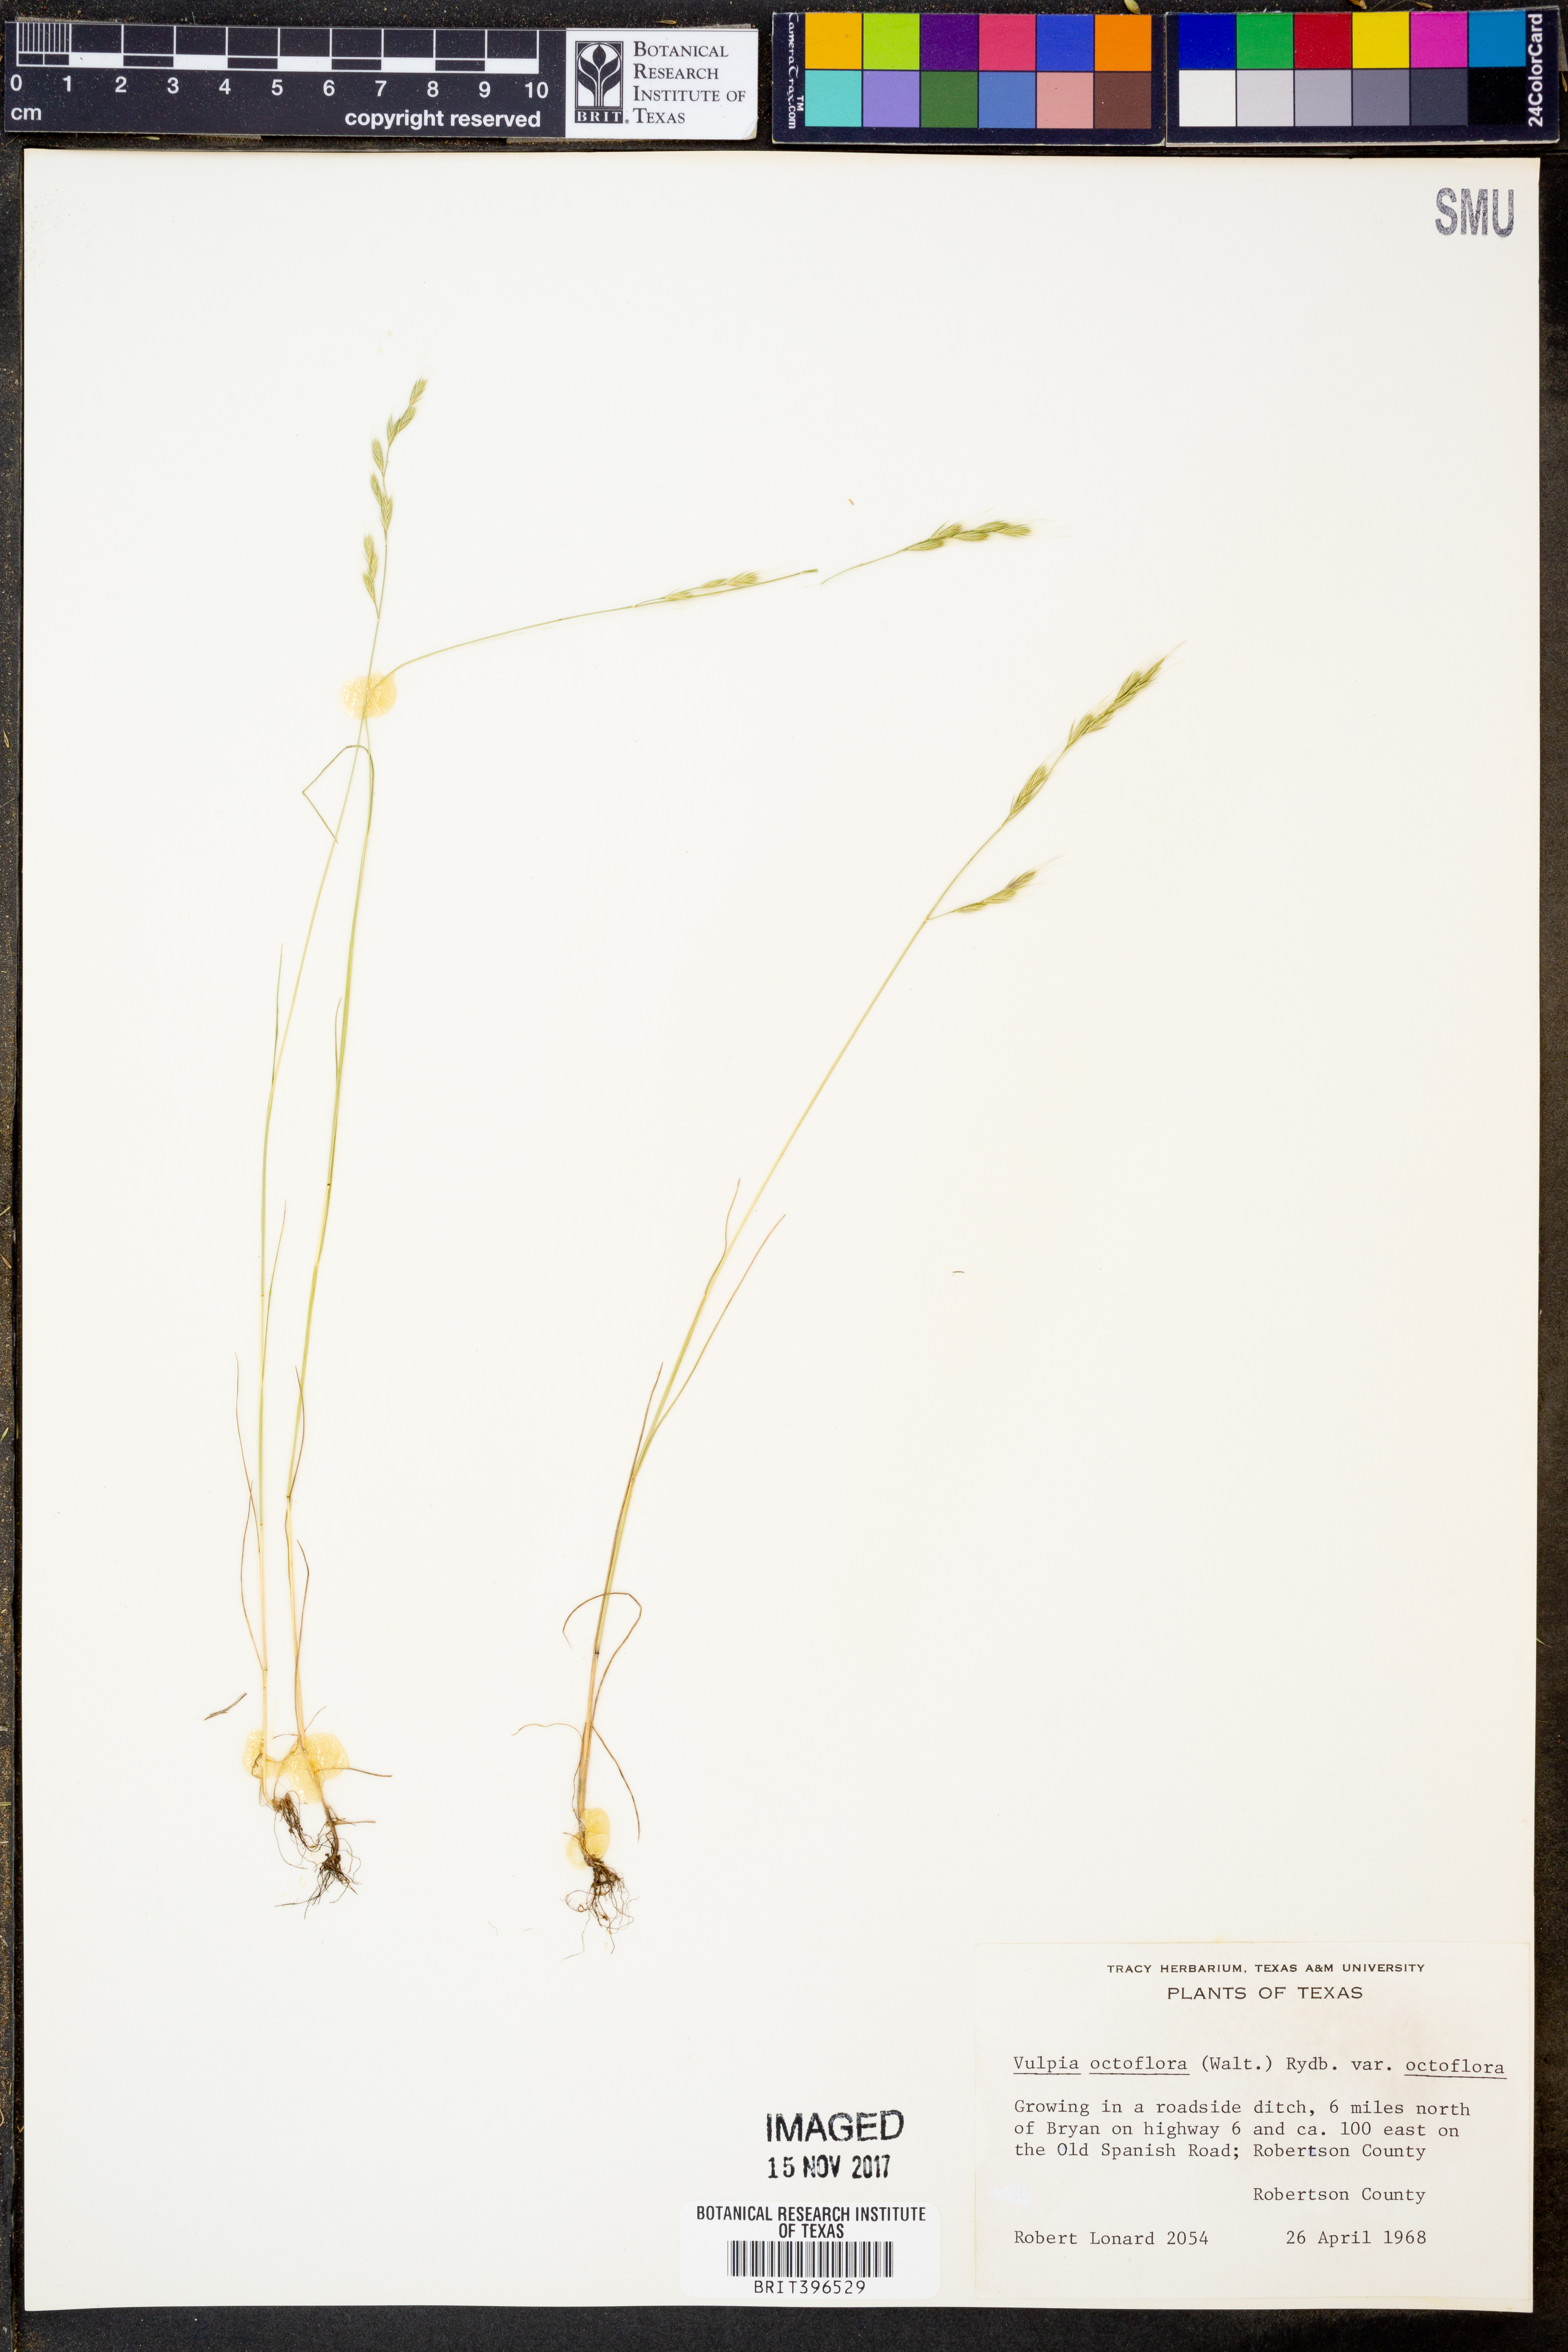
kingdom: Plantae
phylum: Tracheophyta
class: Liliopsida
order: Poales
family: Poaceae
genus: Festuca
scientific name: Festuca octoflora
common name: Sixweeks grass
